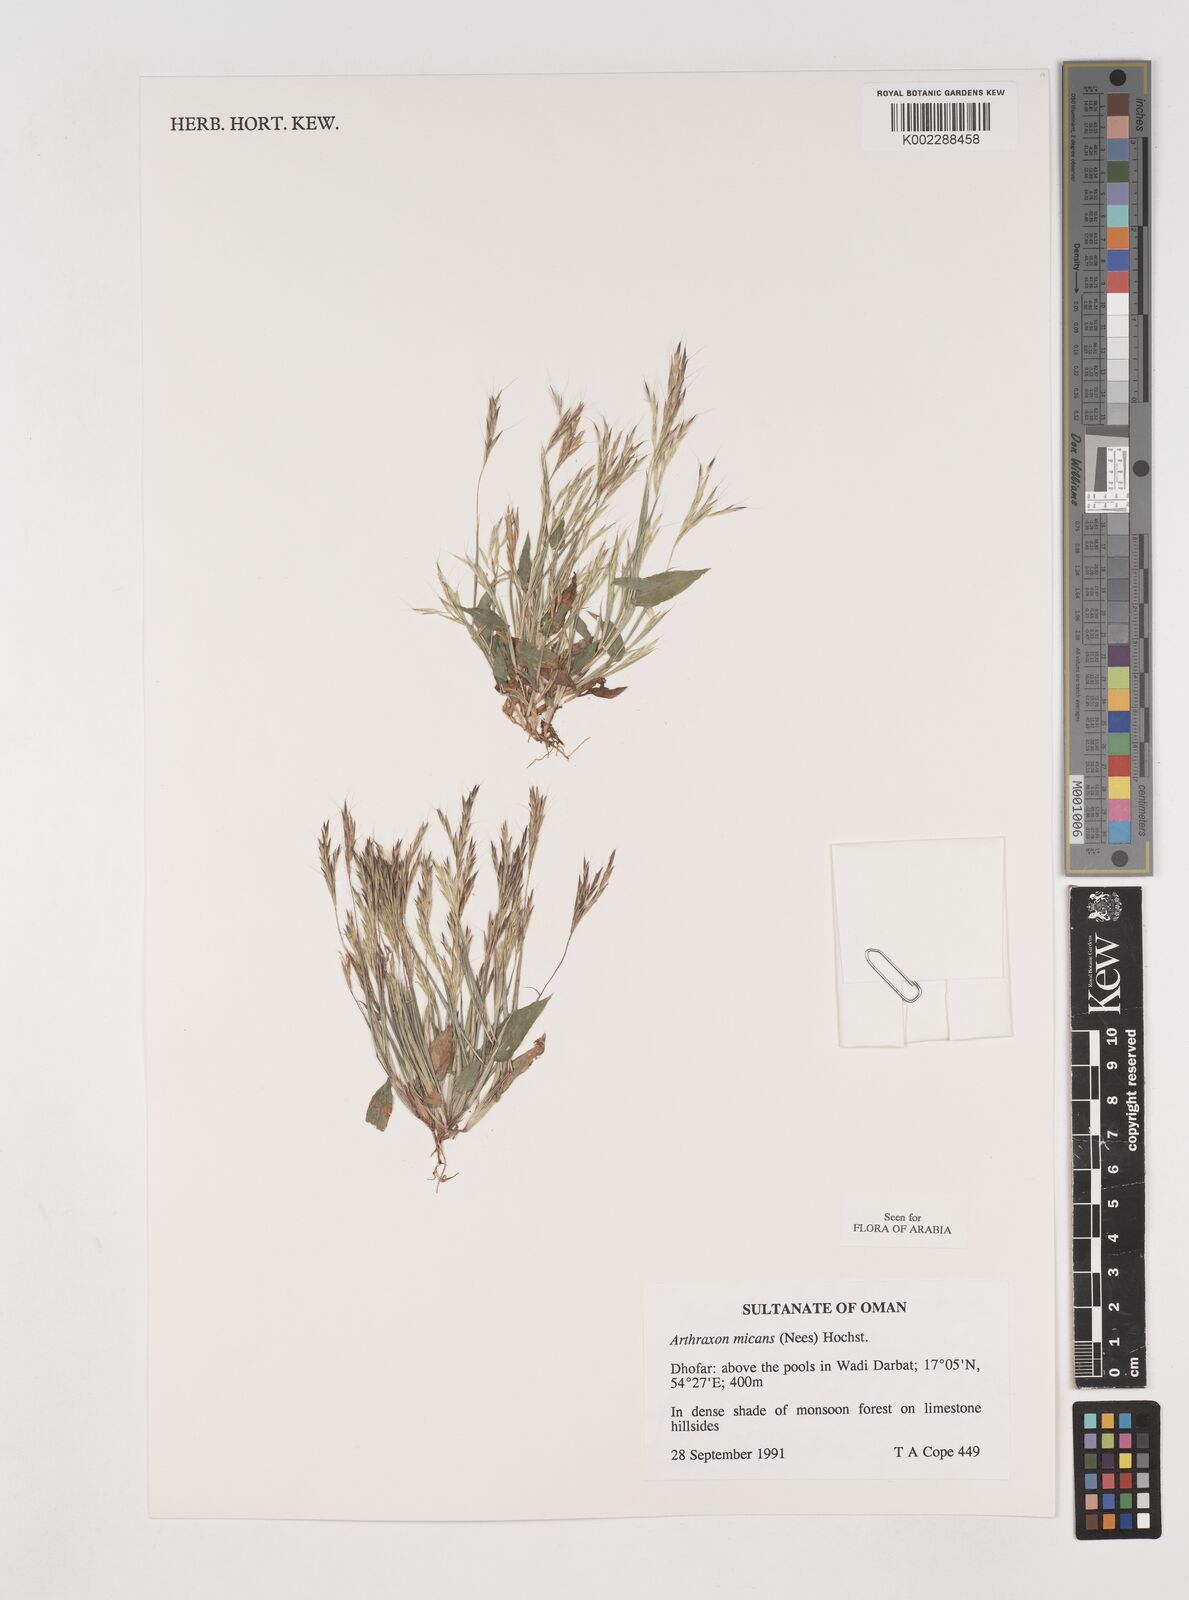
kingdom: Plantae
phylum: Tracheophyta
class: Liliopsida
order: Poales
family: Poaceae
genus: Arthraxon
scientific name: Arthraxon hispidus
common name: Small carpgrass
